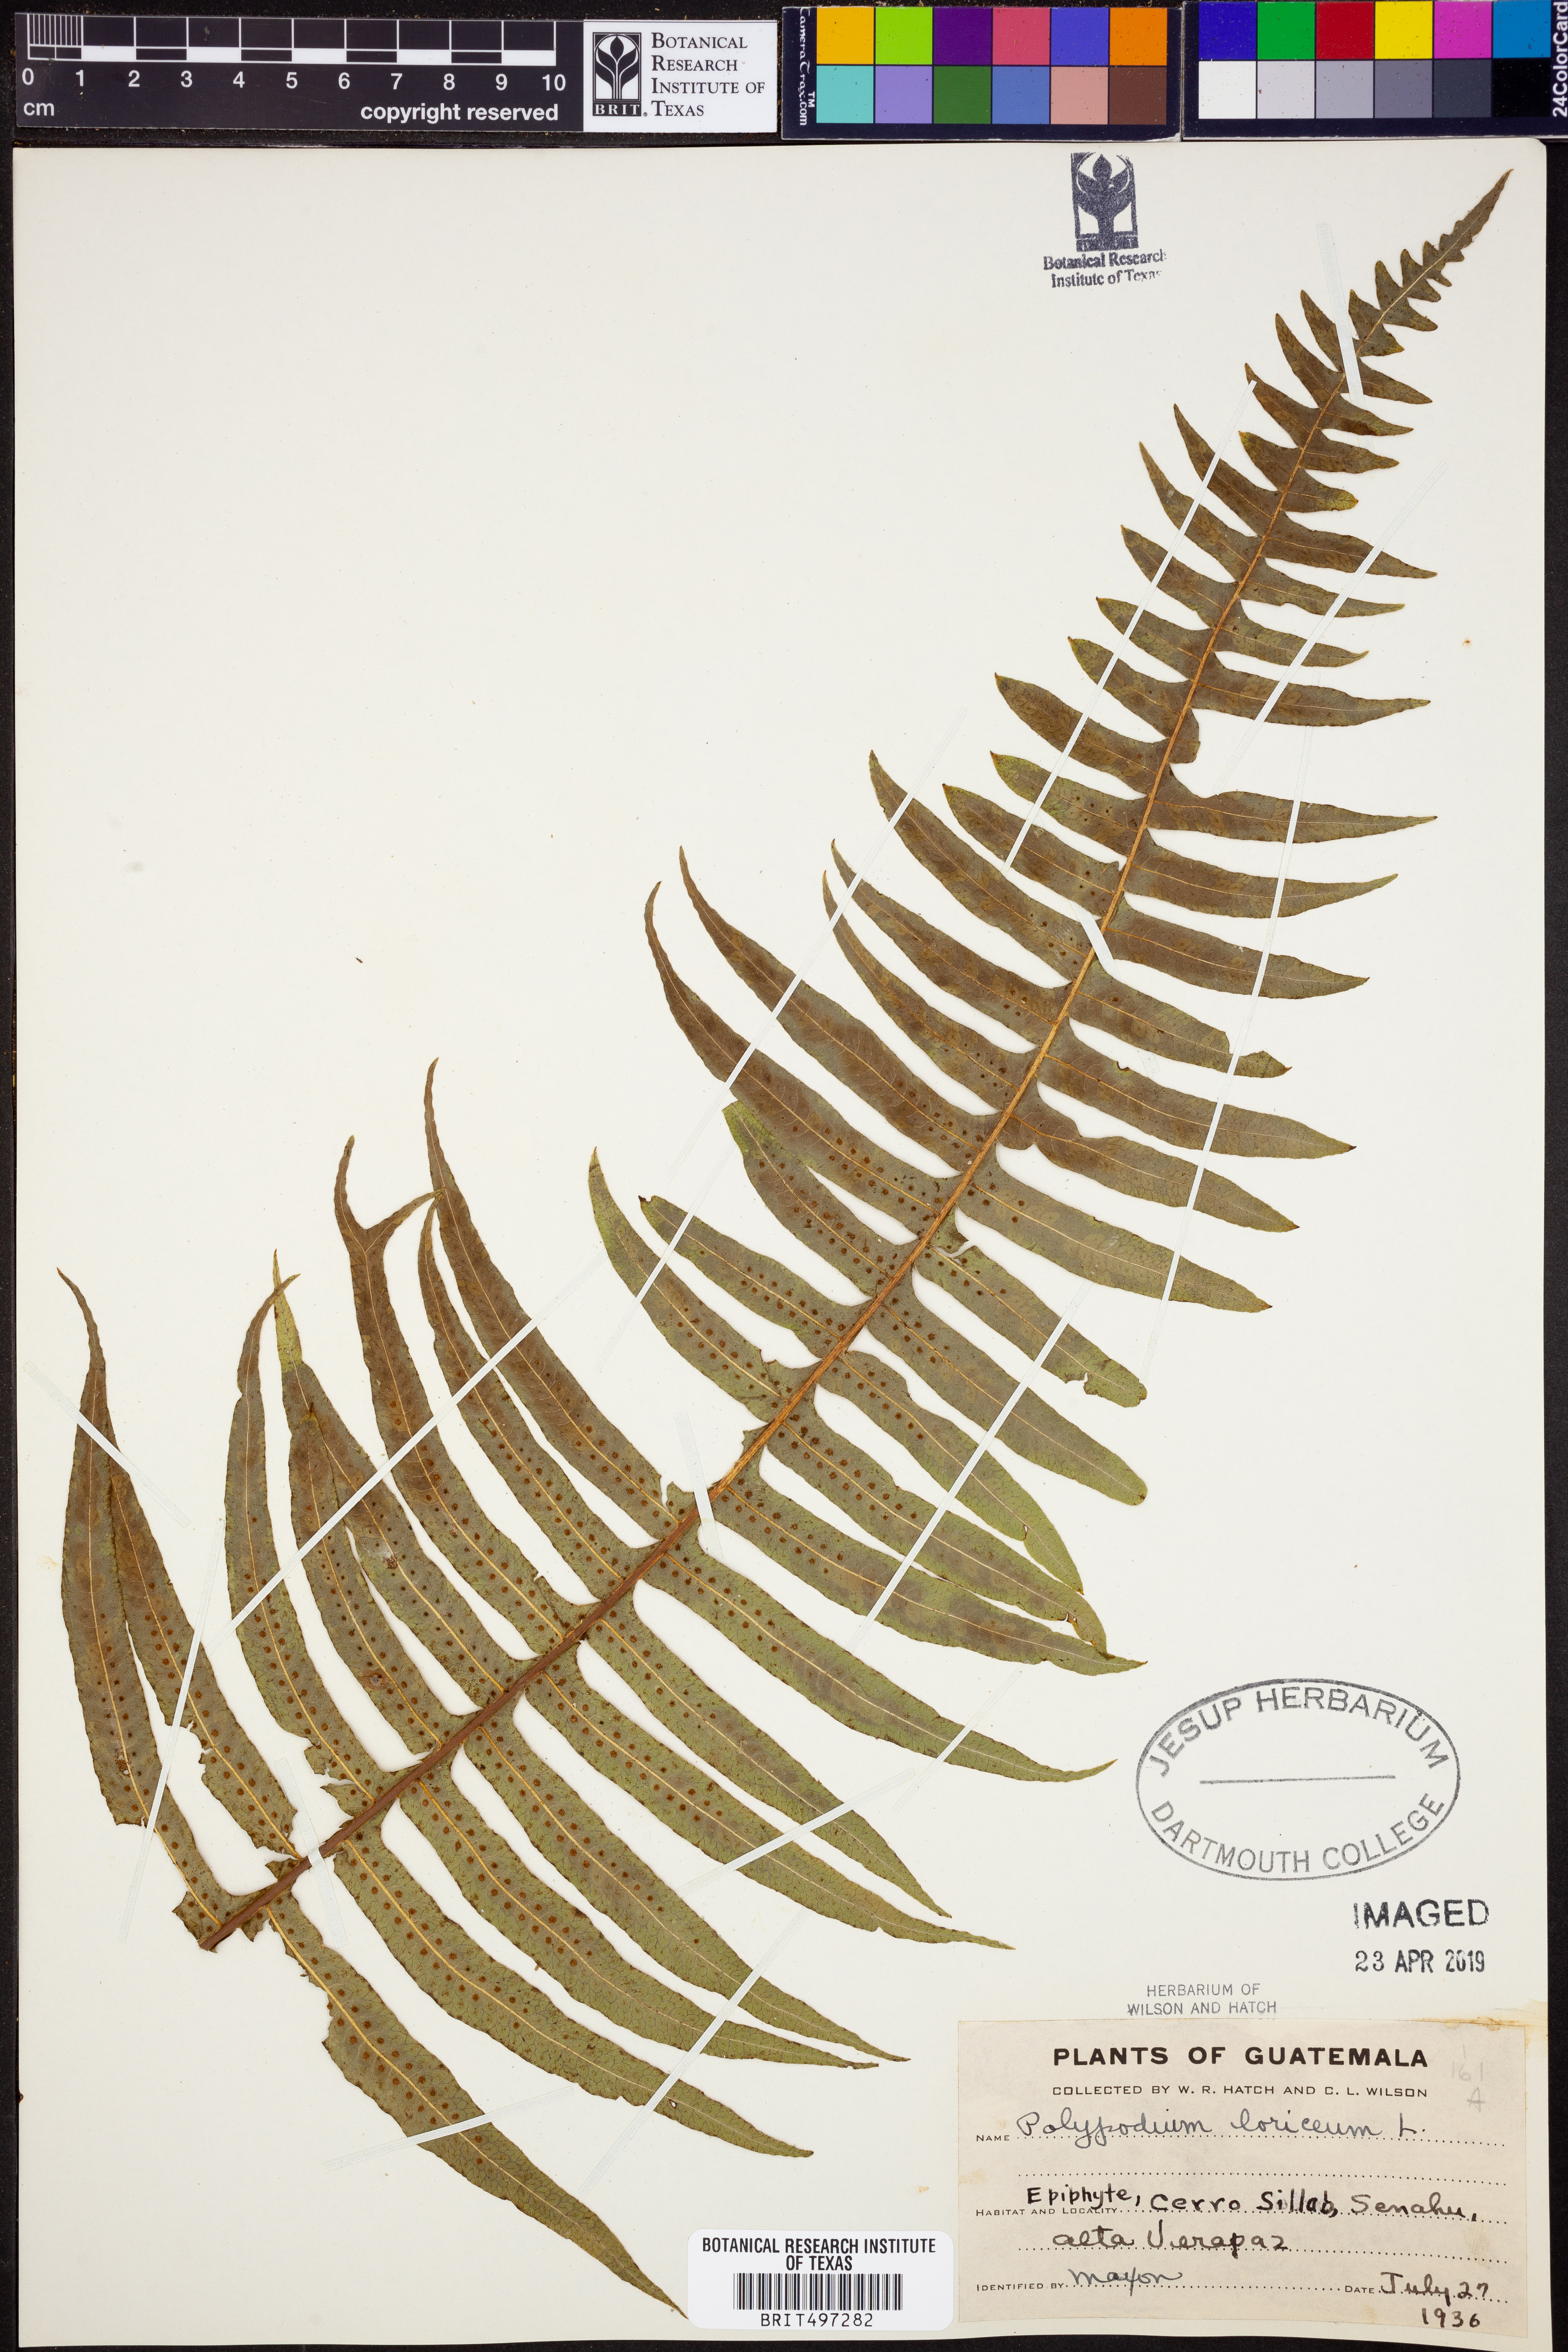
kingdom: Plantae
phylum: Tracheophyta
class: Polypodiopsida
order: Polypodiales
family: Polypodiaceae
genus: Serpocaulon
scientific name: Serpocaulon loriceum
